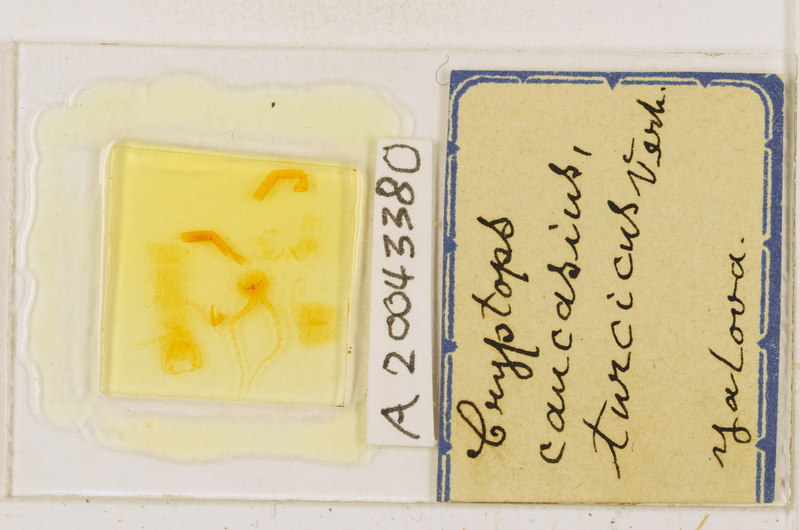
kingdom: Animalia
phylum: Arthropoda
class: Chilopoda
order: Scolopendromorpha
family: Cryptopidae
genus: Cryptops
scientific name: Cryptops caucasius
